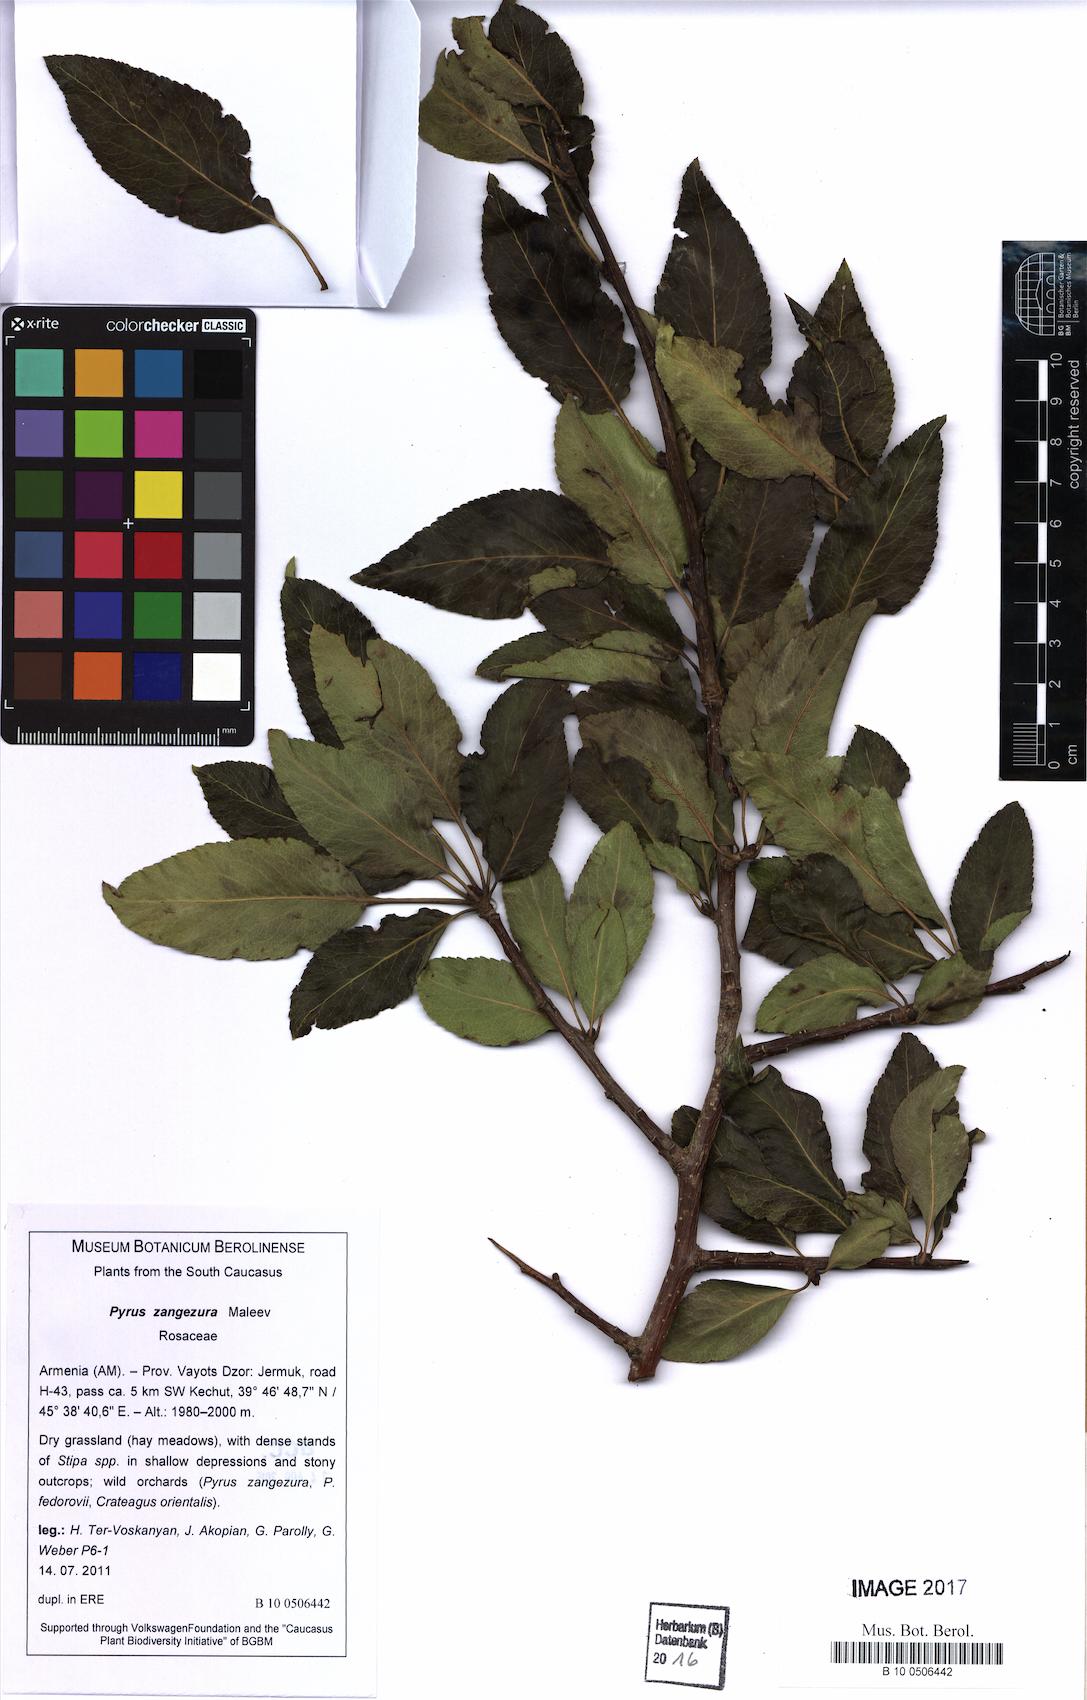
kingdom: Plantae
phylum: Tracheophyta
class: Magnoliopsida
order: Rosales
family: Rosaceae
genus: Pyrus
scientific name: Pyrus zangezura
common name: Zangezurian pear
